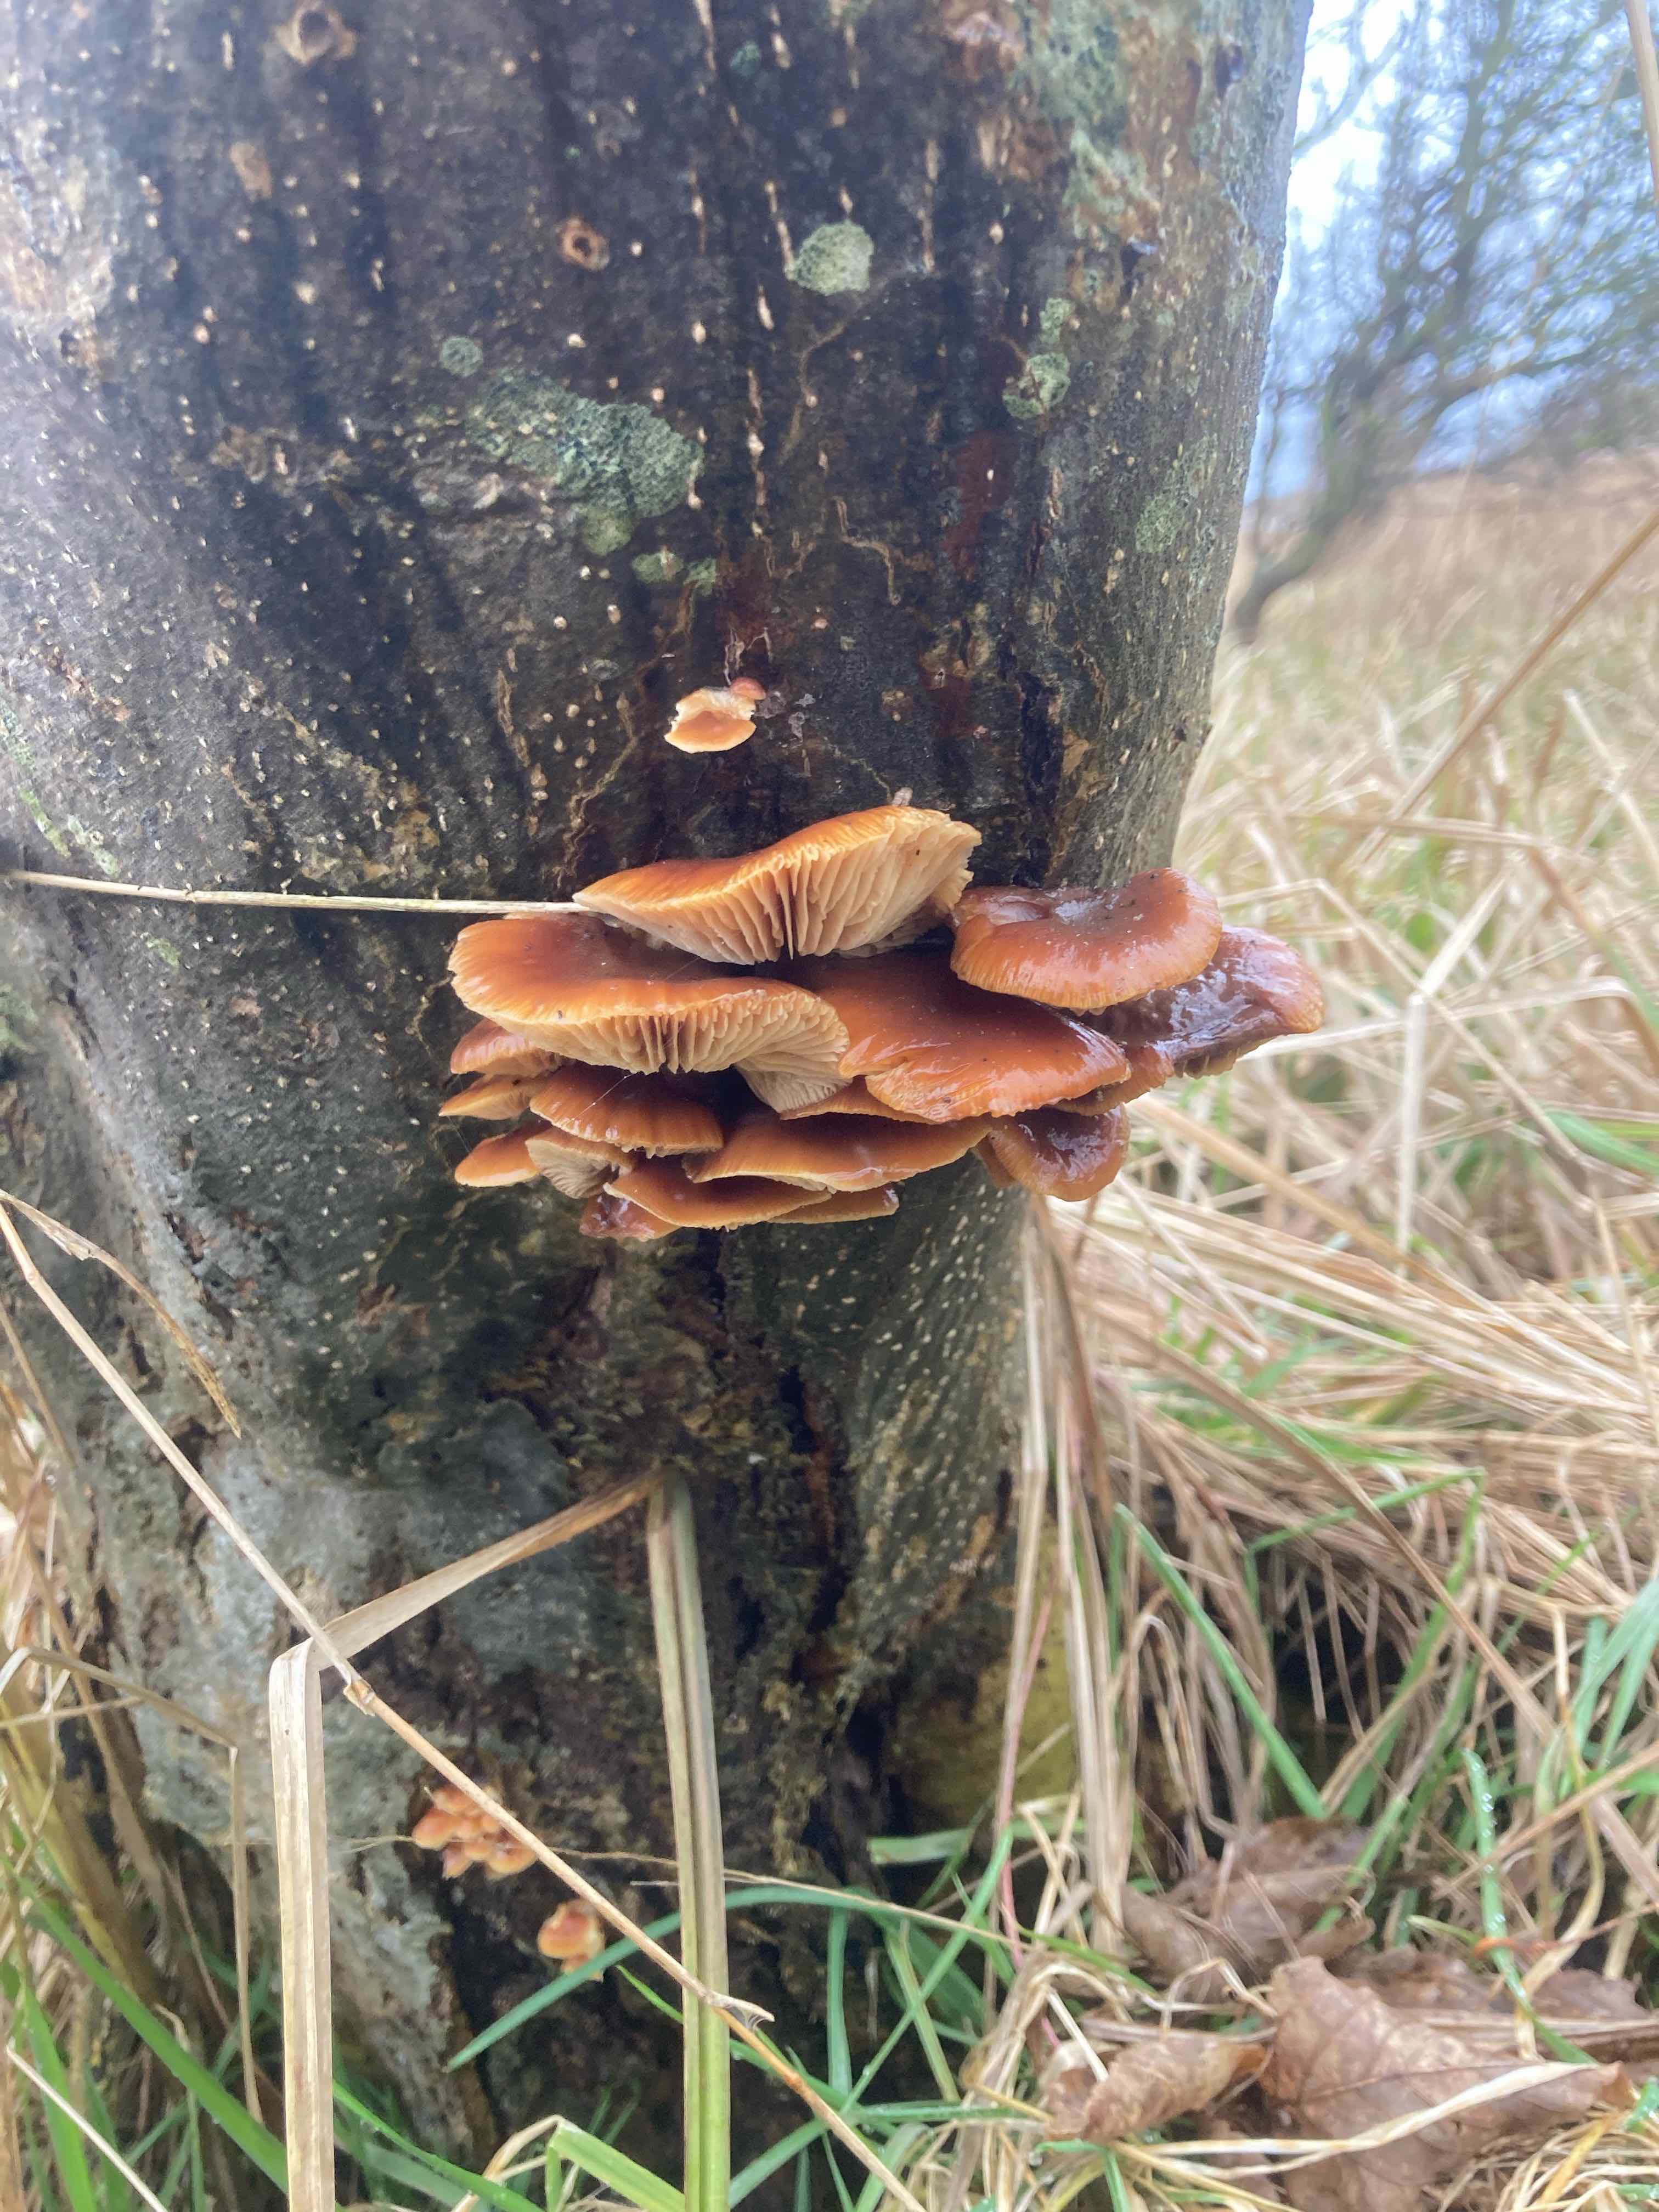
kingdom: Fungi
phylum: Basidiomycota
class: Agaricomycetes
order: Agaricales
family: Physalacriaceae
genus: Flammulina
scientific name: Flammulina velutipes
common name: gul fløjlsfod
